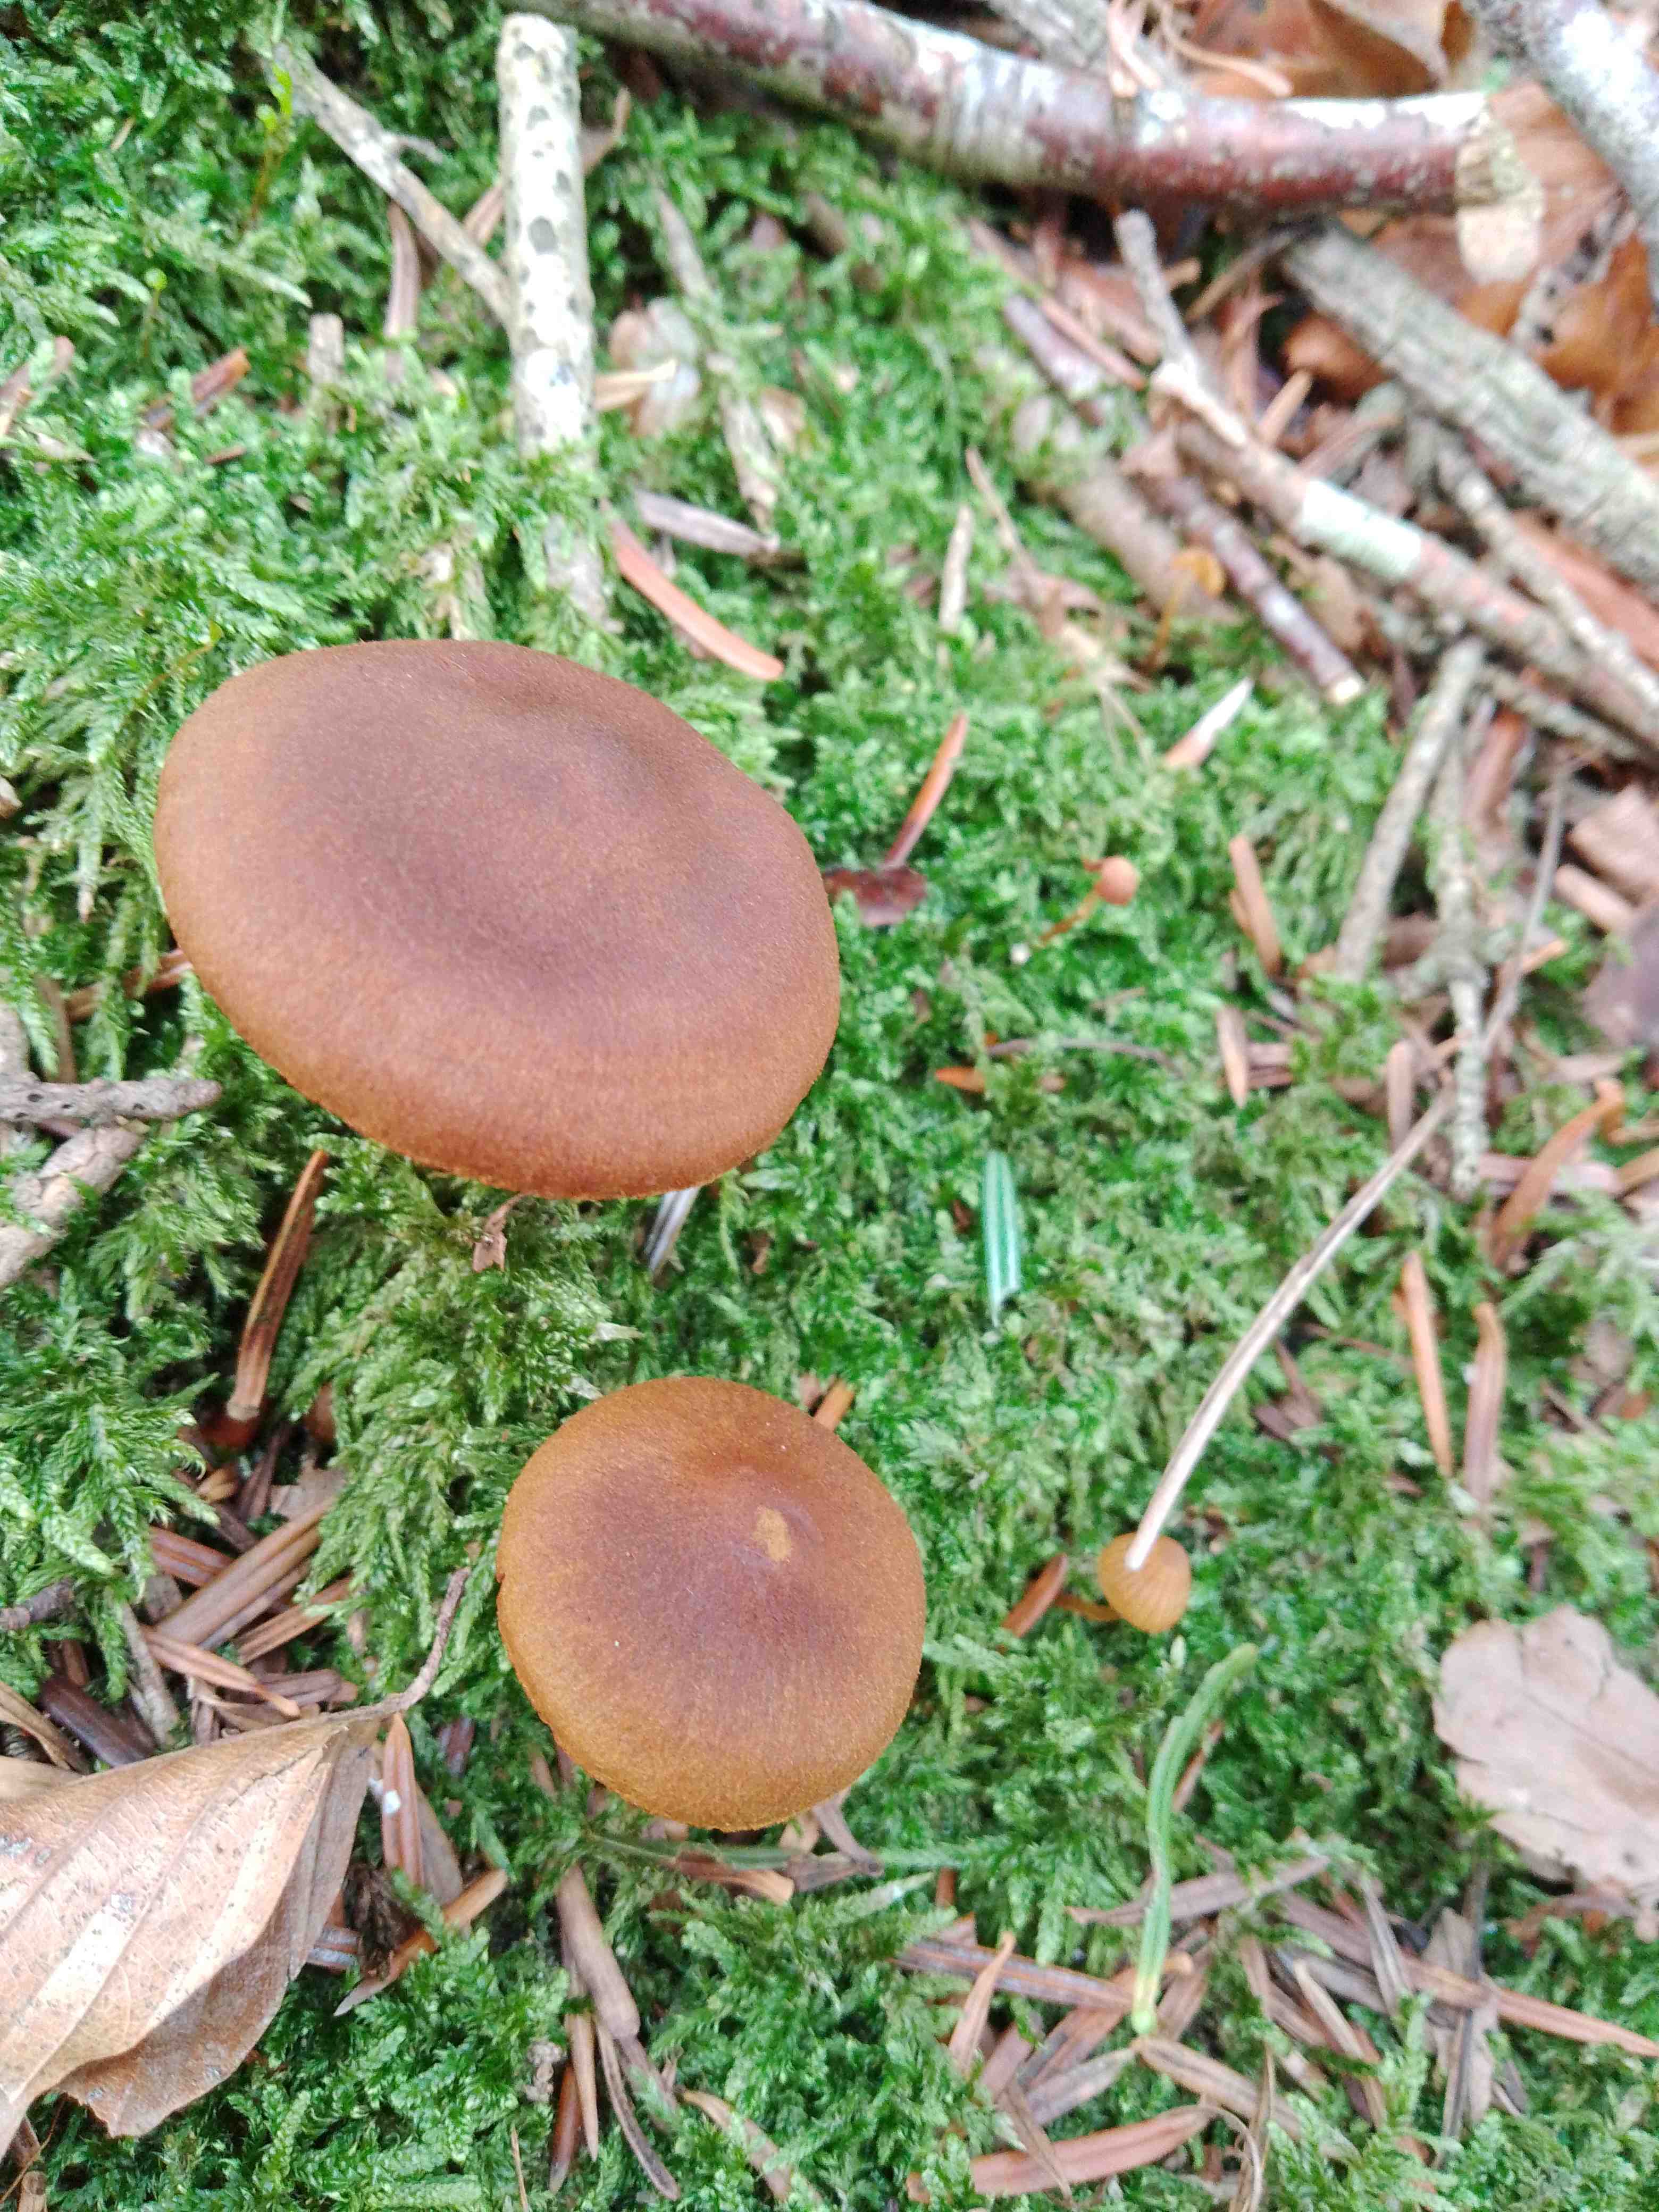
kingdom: Fungi
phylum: Basidiomycota
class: Agaricomycetes
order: Agaricales
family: Cortinariaceae
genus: Cortinarius
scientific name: Cortinarius
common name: cinnoberbladet slørhat
